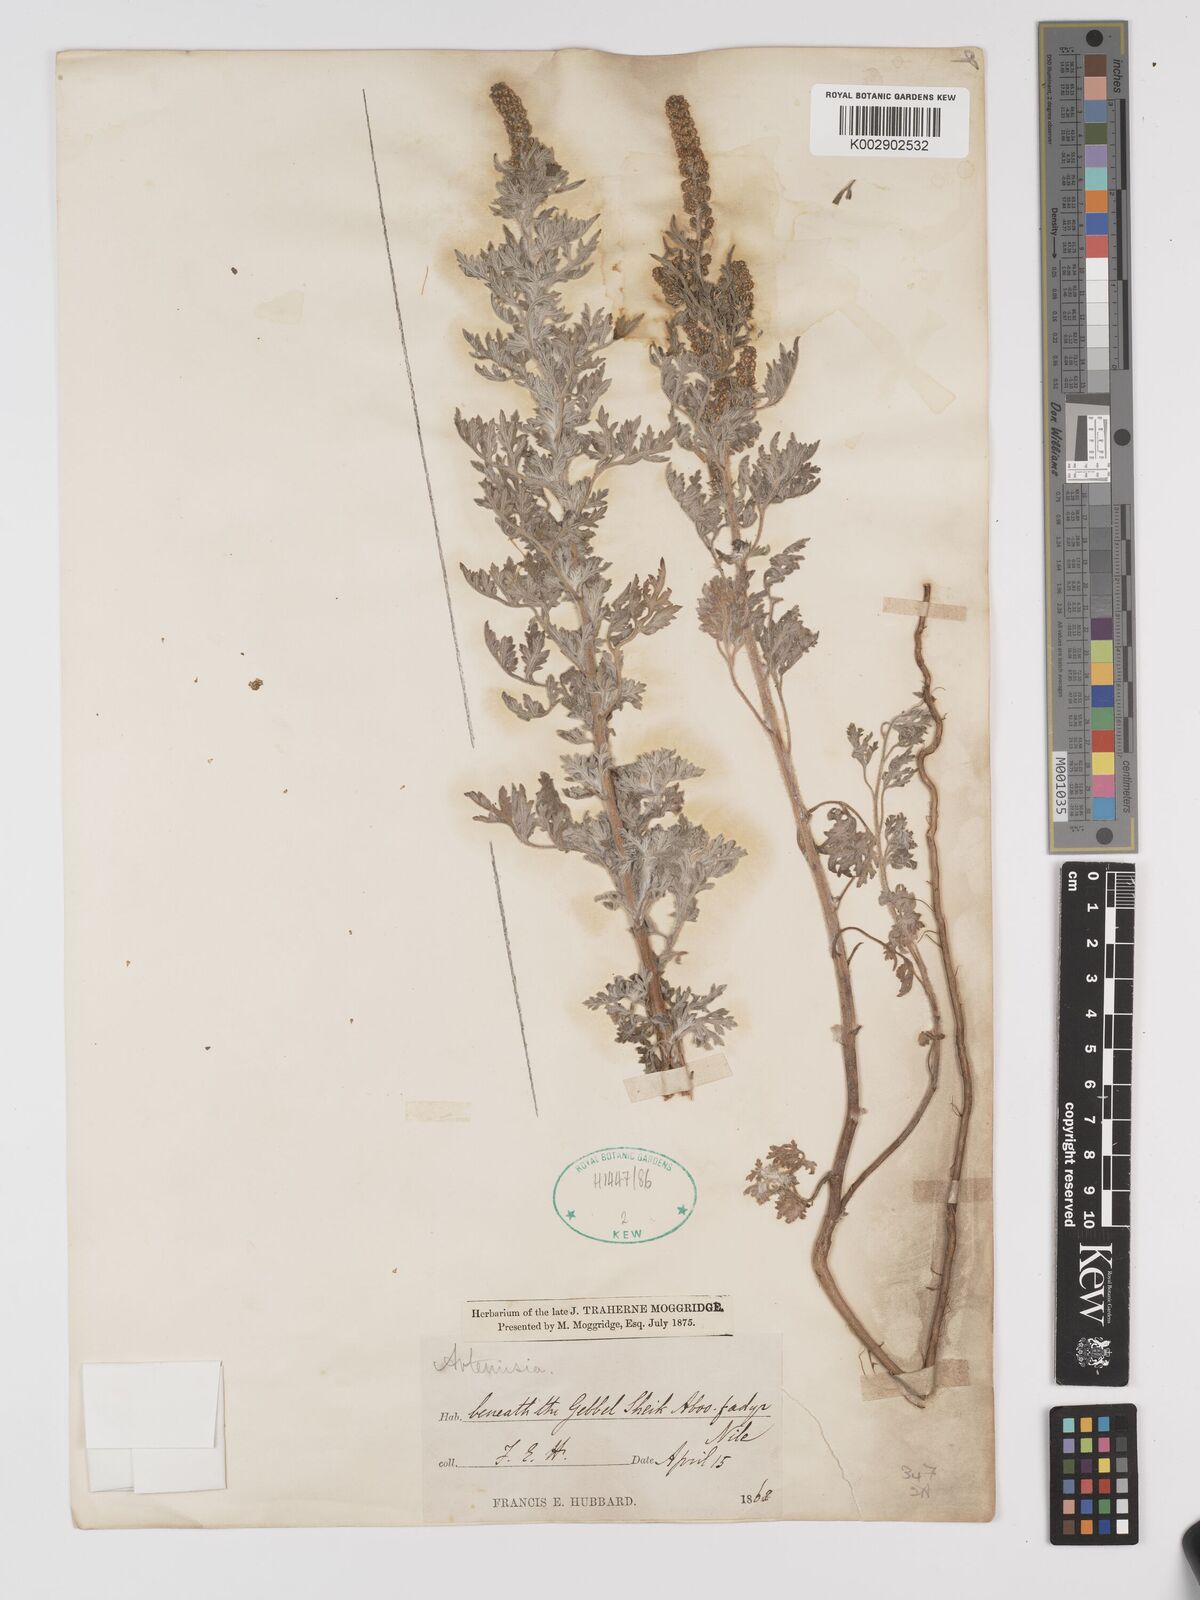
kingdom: Plantae
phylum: Tracheophyta
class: Magnoliopsida
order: Asterales
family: Asteraceae
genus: Ambrosia
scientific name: Ambrosia maritima
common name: Sea ambrosia
